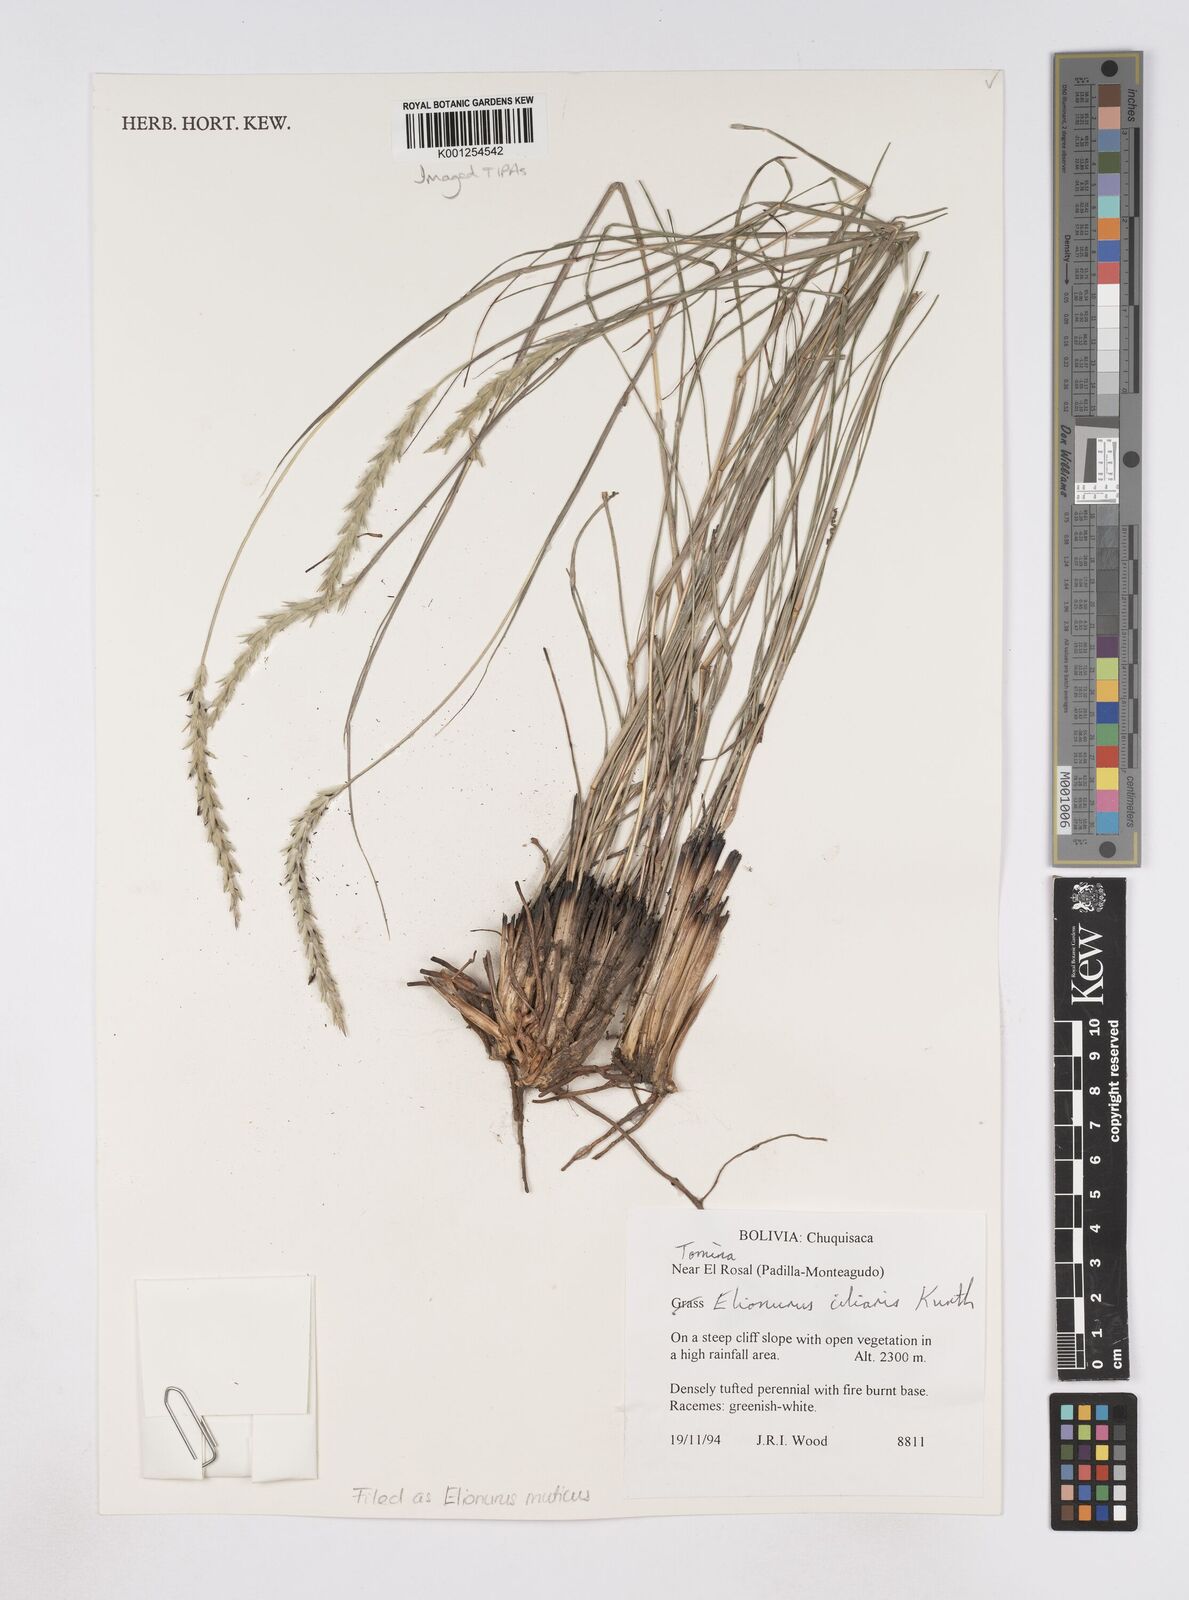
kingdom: Plantae
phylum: Tracheophyta
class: Liliopsida
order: Poales
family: Poaceae
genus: Elionurus
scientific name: Elionurus muticus
